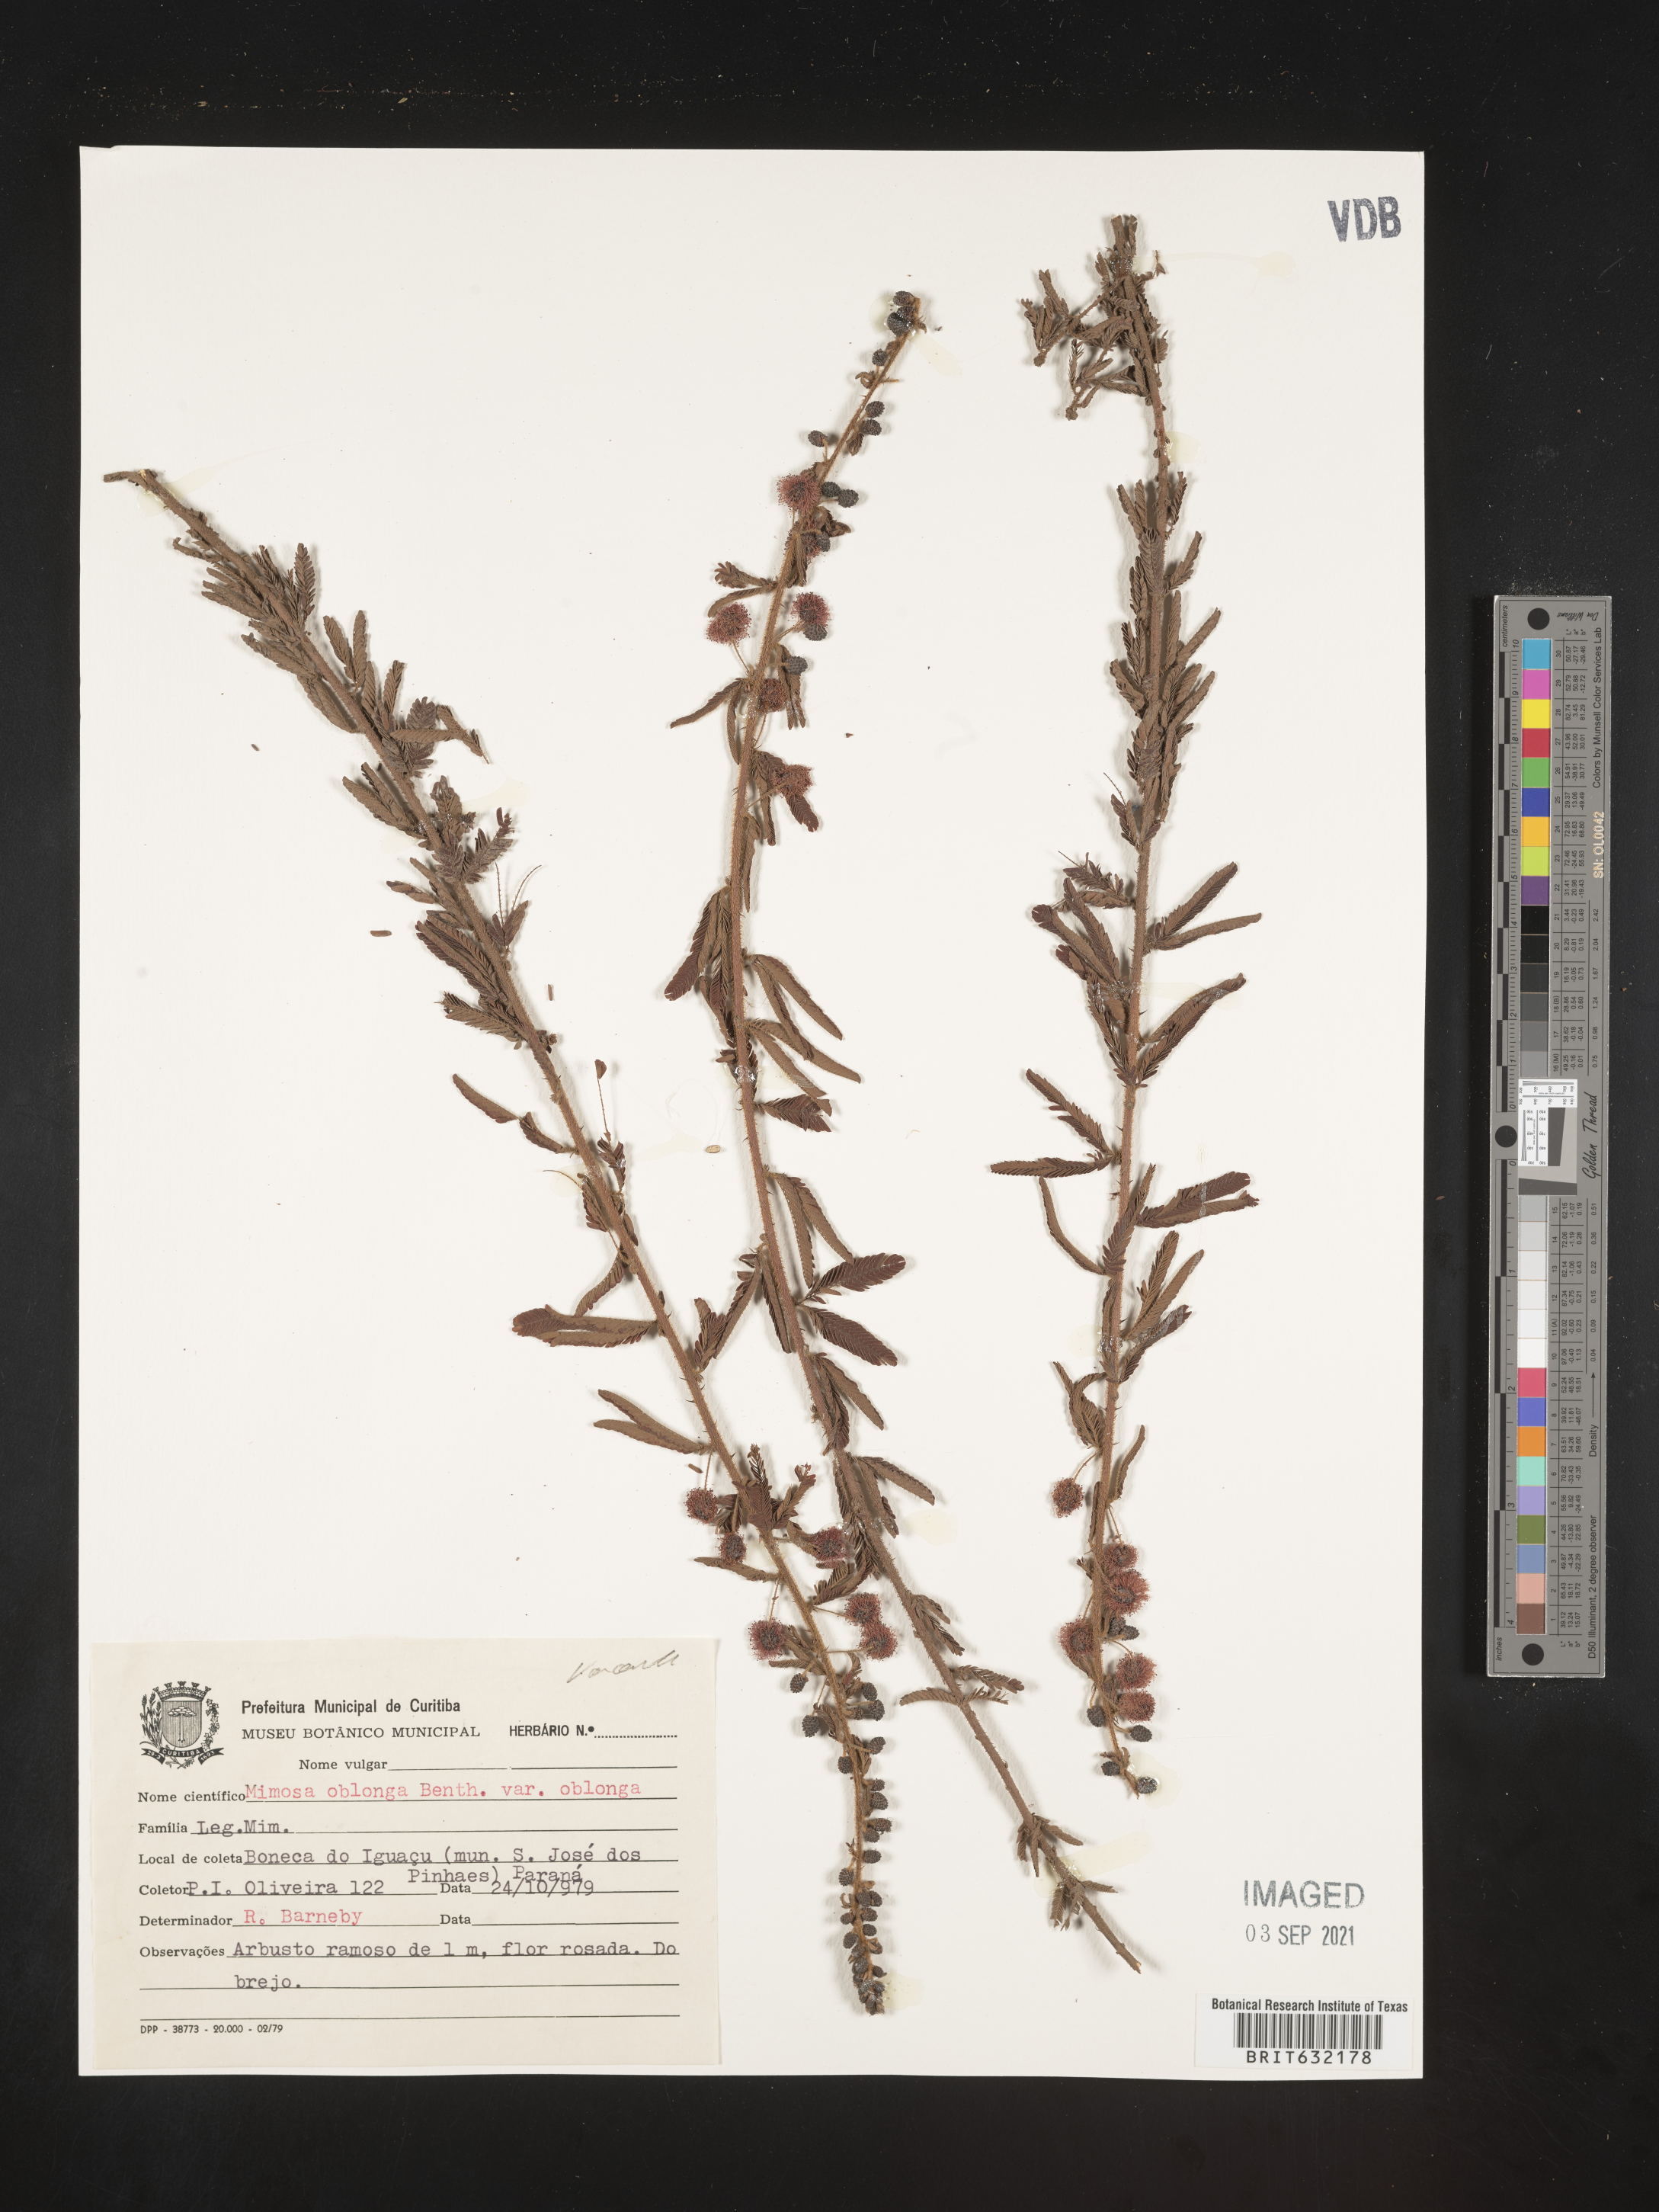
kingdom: Plantae
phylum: Tracheophyta
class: Magnoliopsida
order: Fabales
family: Fabaceae
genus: Mimosa
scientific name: Mimosa
